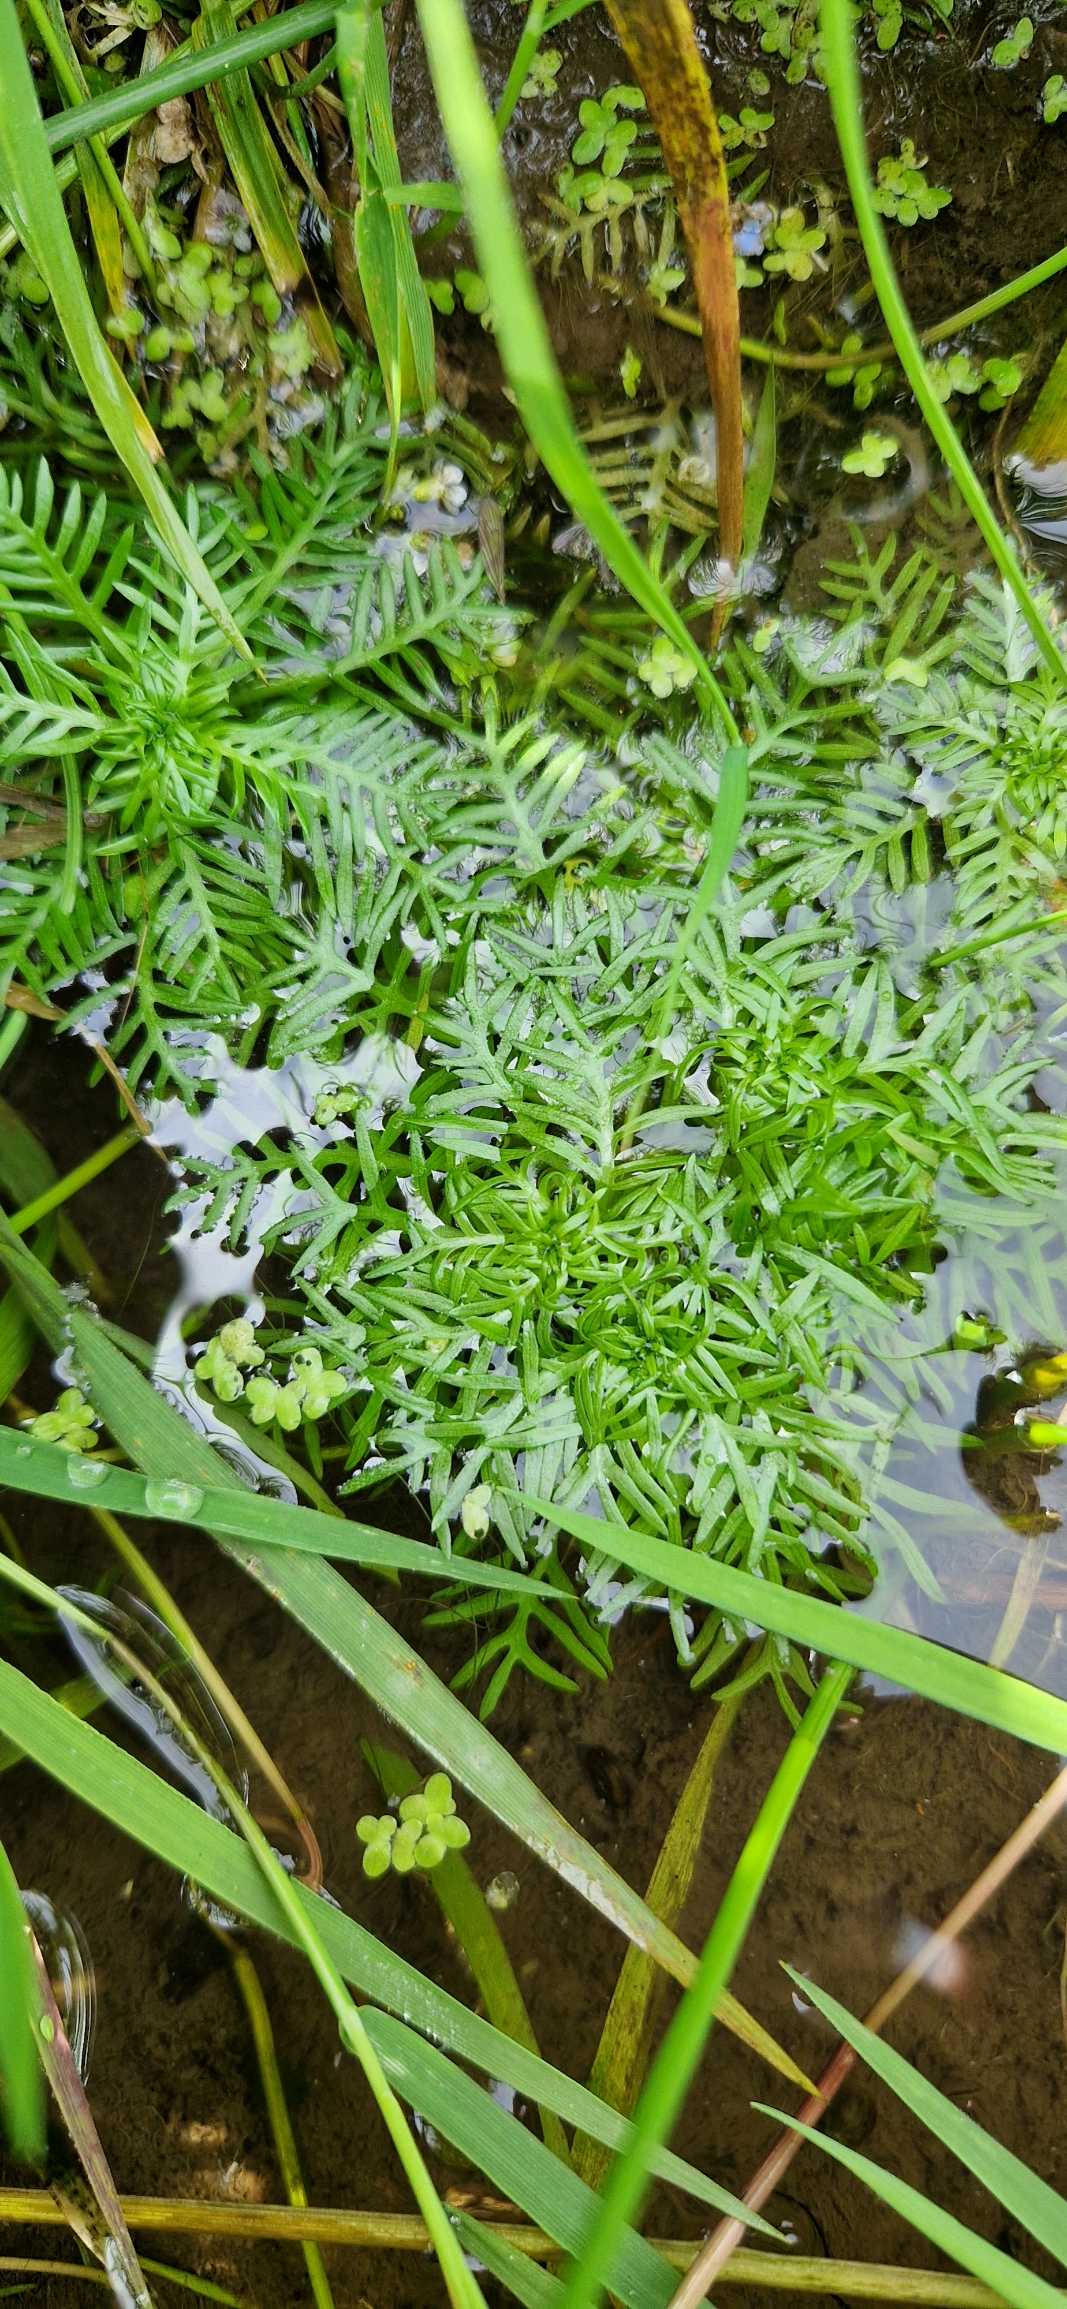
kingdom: Plantae
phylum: Tracheophyta
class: Magnoliopsida
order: Ericales
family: Primulaceae
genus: Hottonia
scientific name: Hottonia palustris
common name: Vandrøllike
